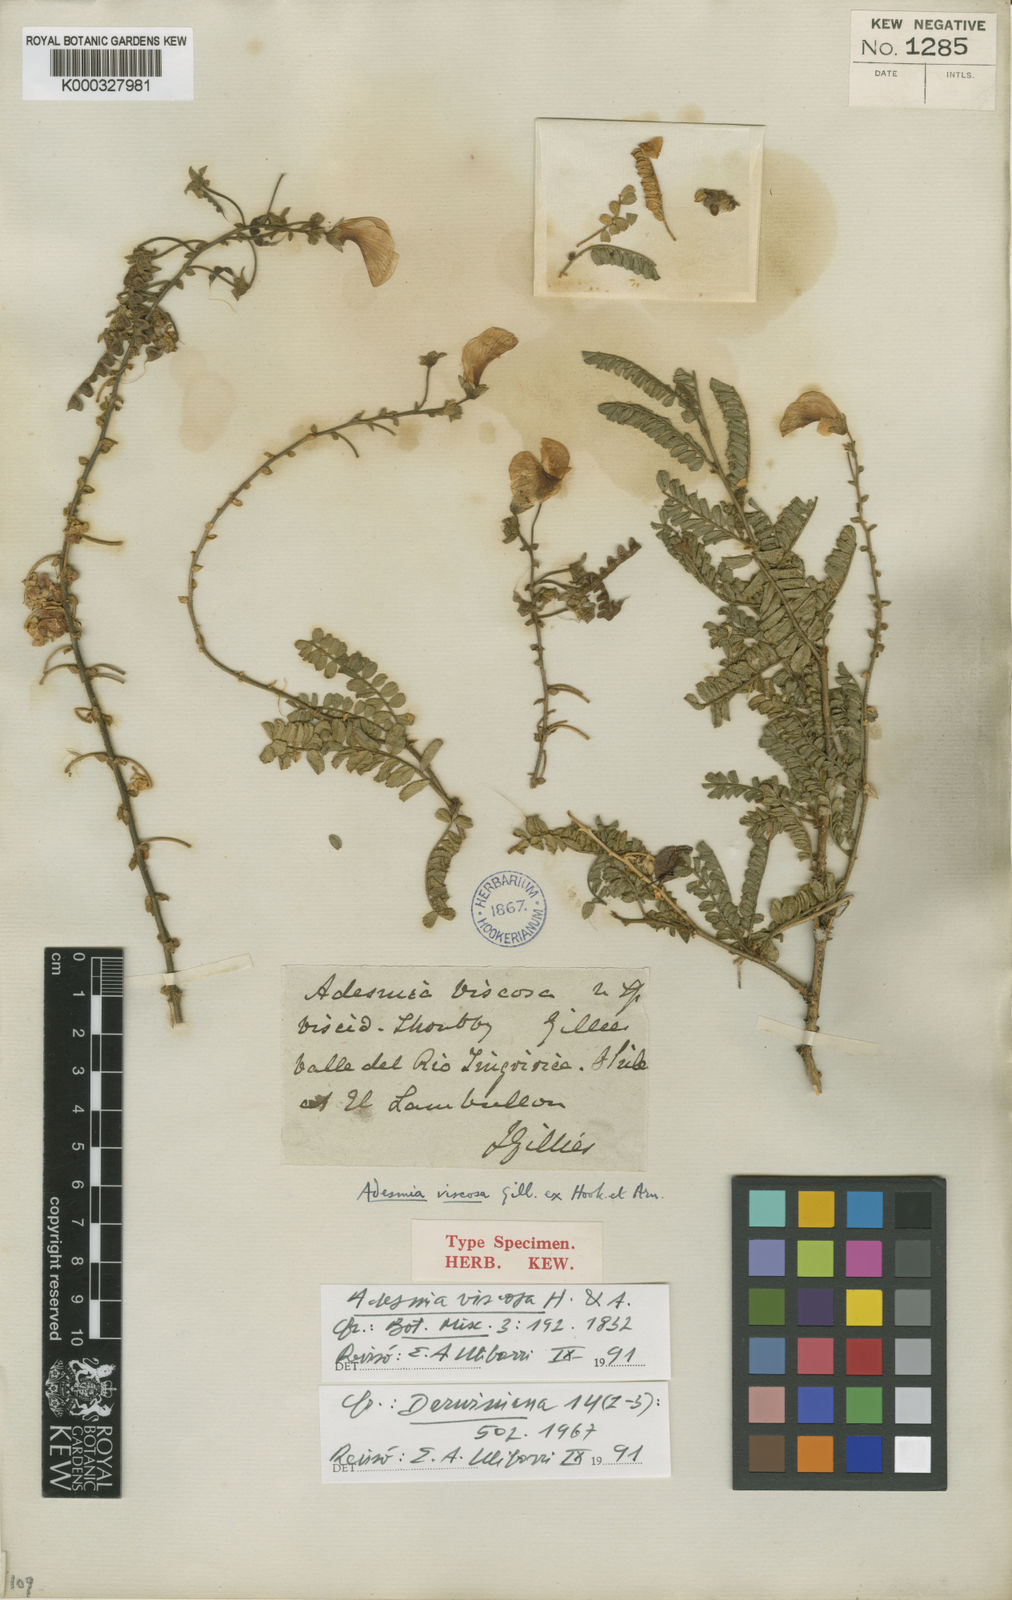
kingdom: Plantae
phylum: Tracheophyta
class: Magnoliopsida
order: Fabales
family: Fabaceae
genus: Adesmia
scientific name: Adesmia viscosa
